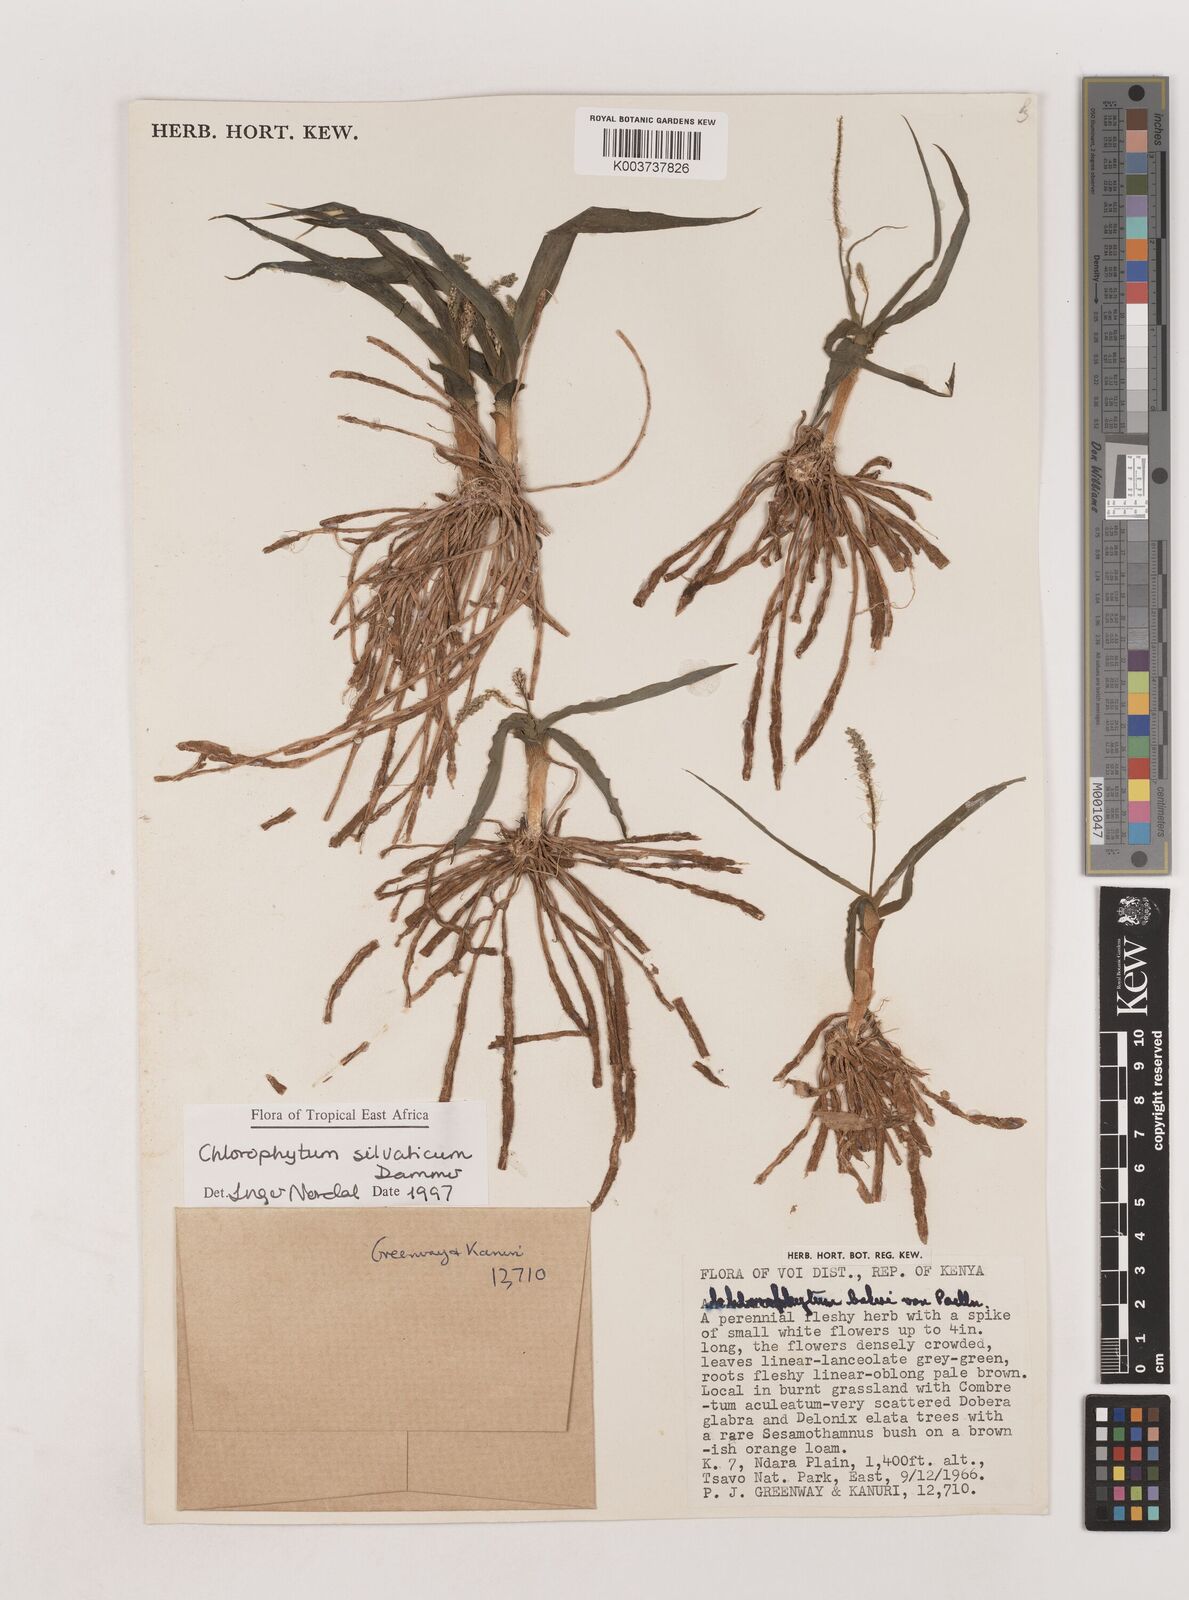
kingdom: Plantae
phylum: Tracheophyta
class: Liliopsida
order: Asparagales
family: Asparagaceae
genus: Chlorophytum
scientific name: Chlorophytum africanum
